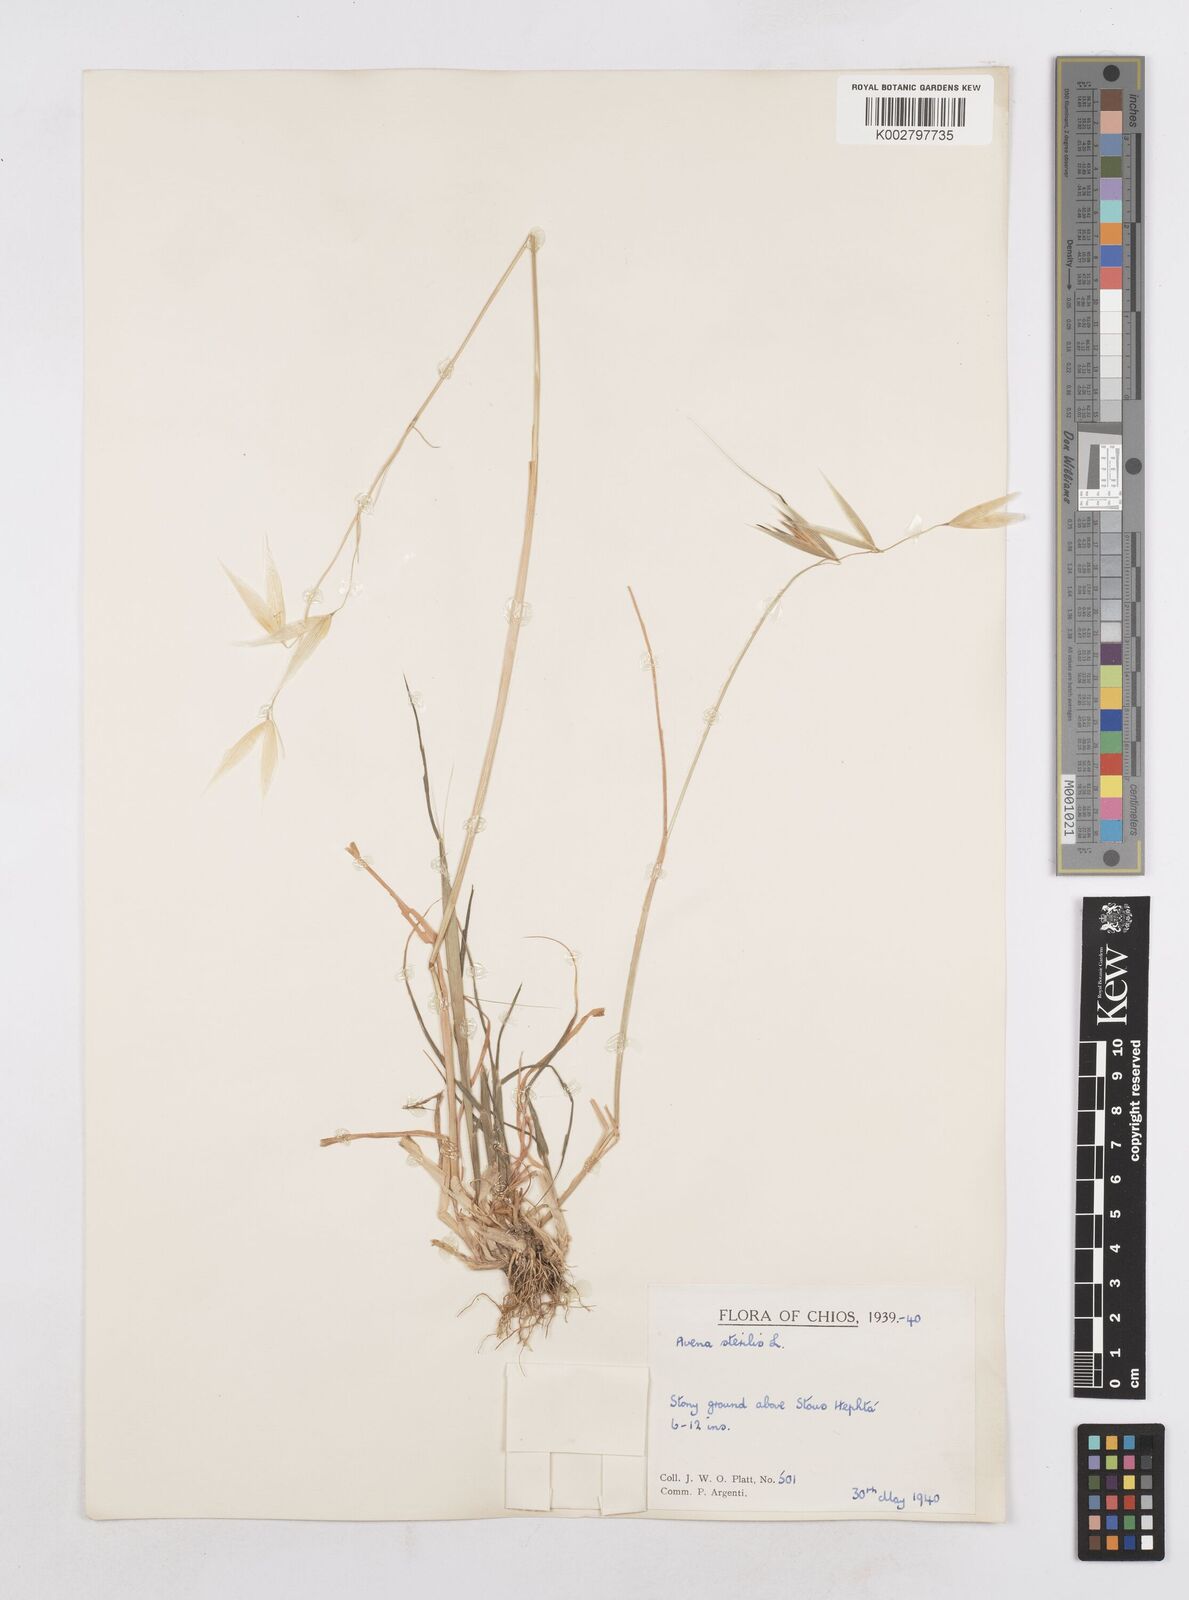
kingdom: Plantae
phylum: Tracheophyta
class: Liliopsida
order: Poales
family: Poaceae
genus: Avena
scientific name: Avena sterilis
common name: Animated oat
